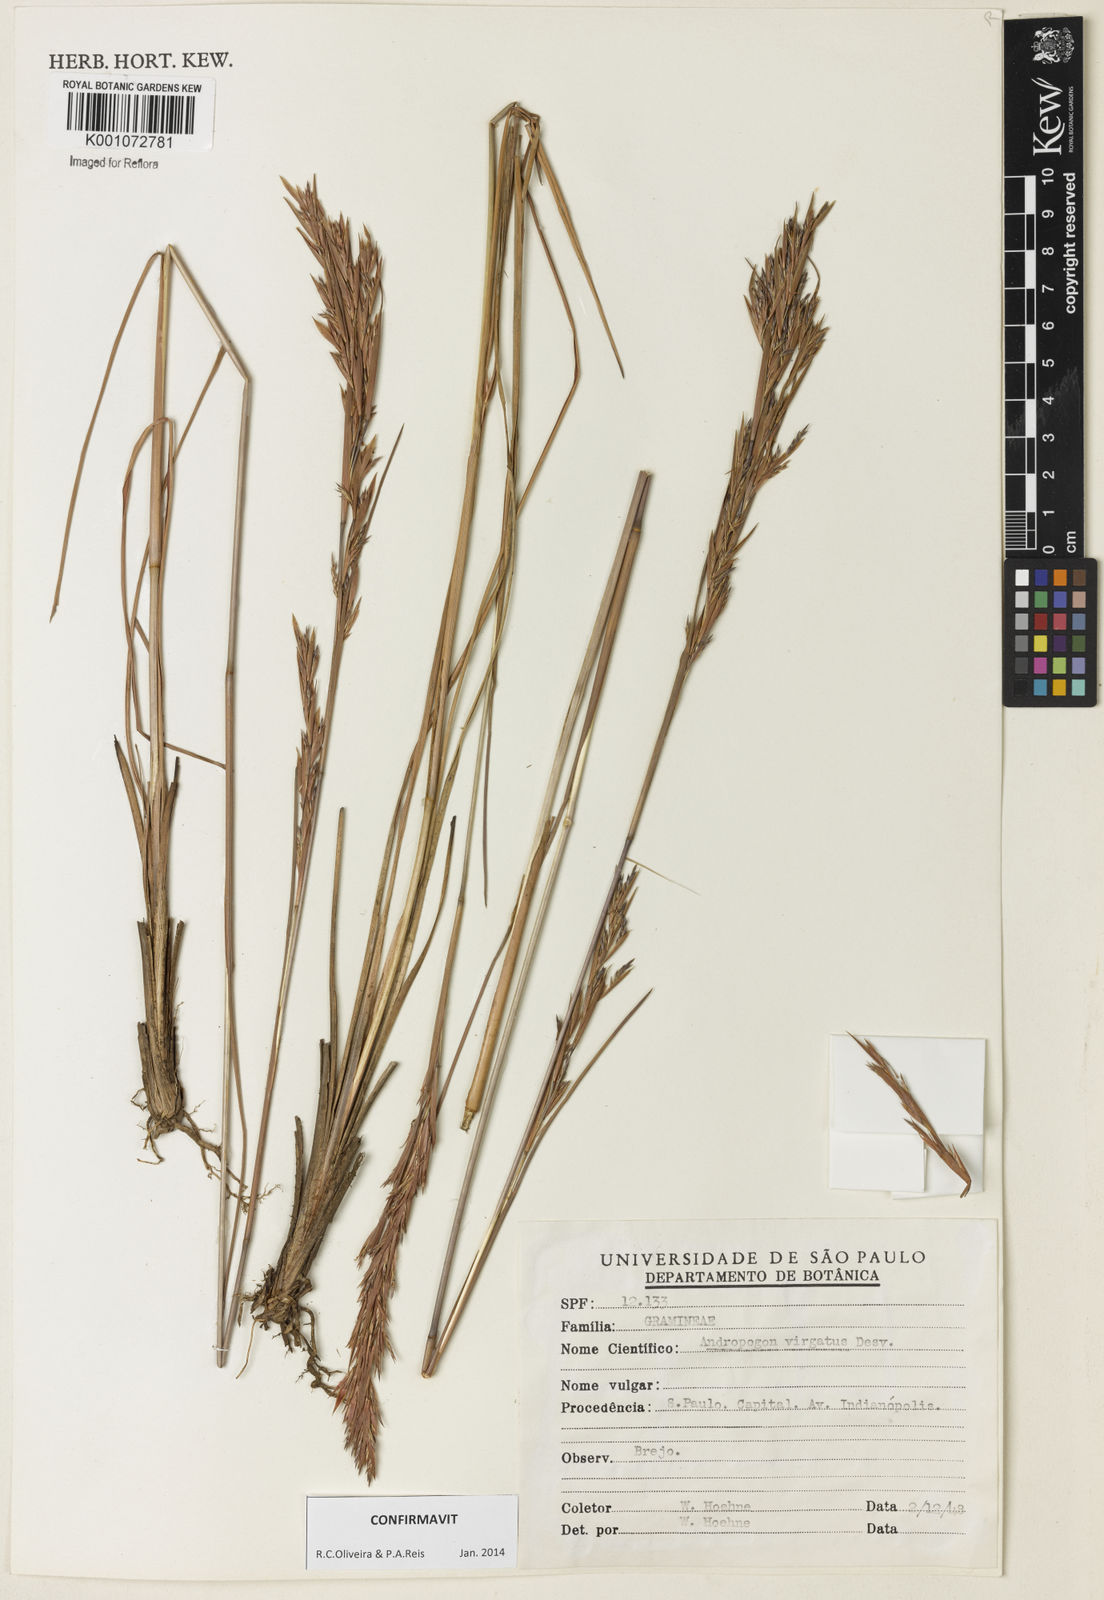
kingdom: Plantae
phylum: Tracheophyta
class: Liliopsida
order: Poales
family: Poaceae
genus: Andropogon
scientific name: Andropogon virgatus
